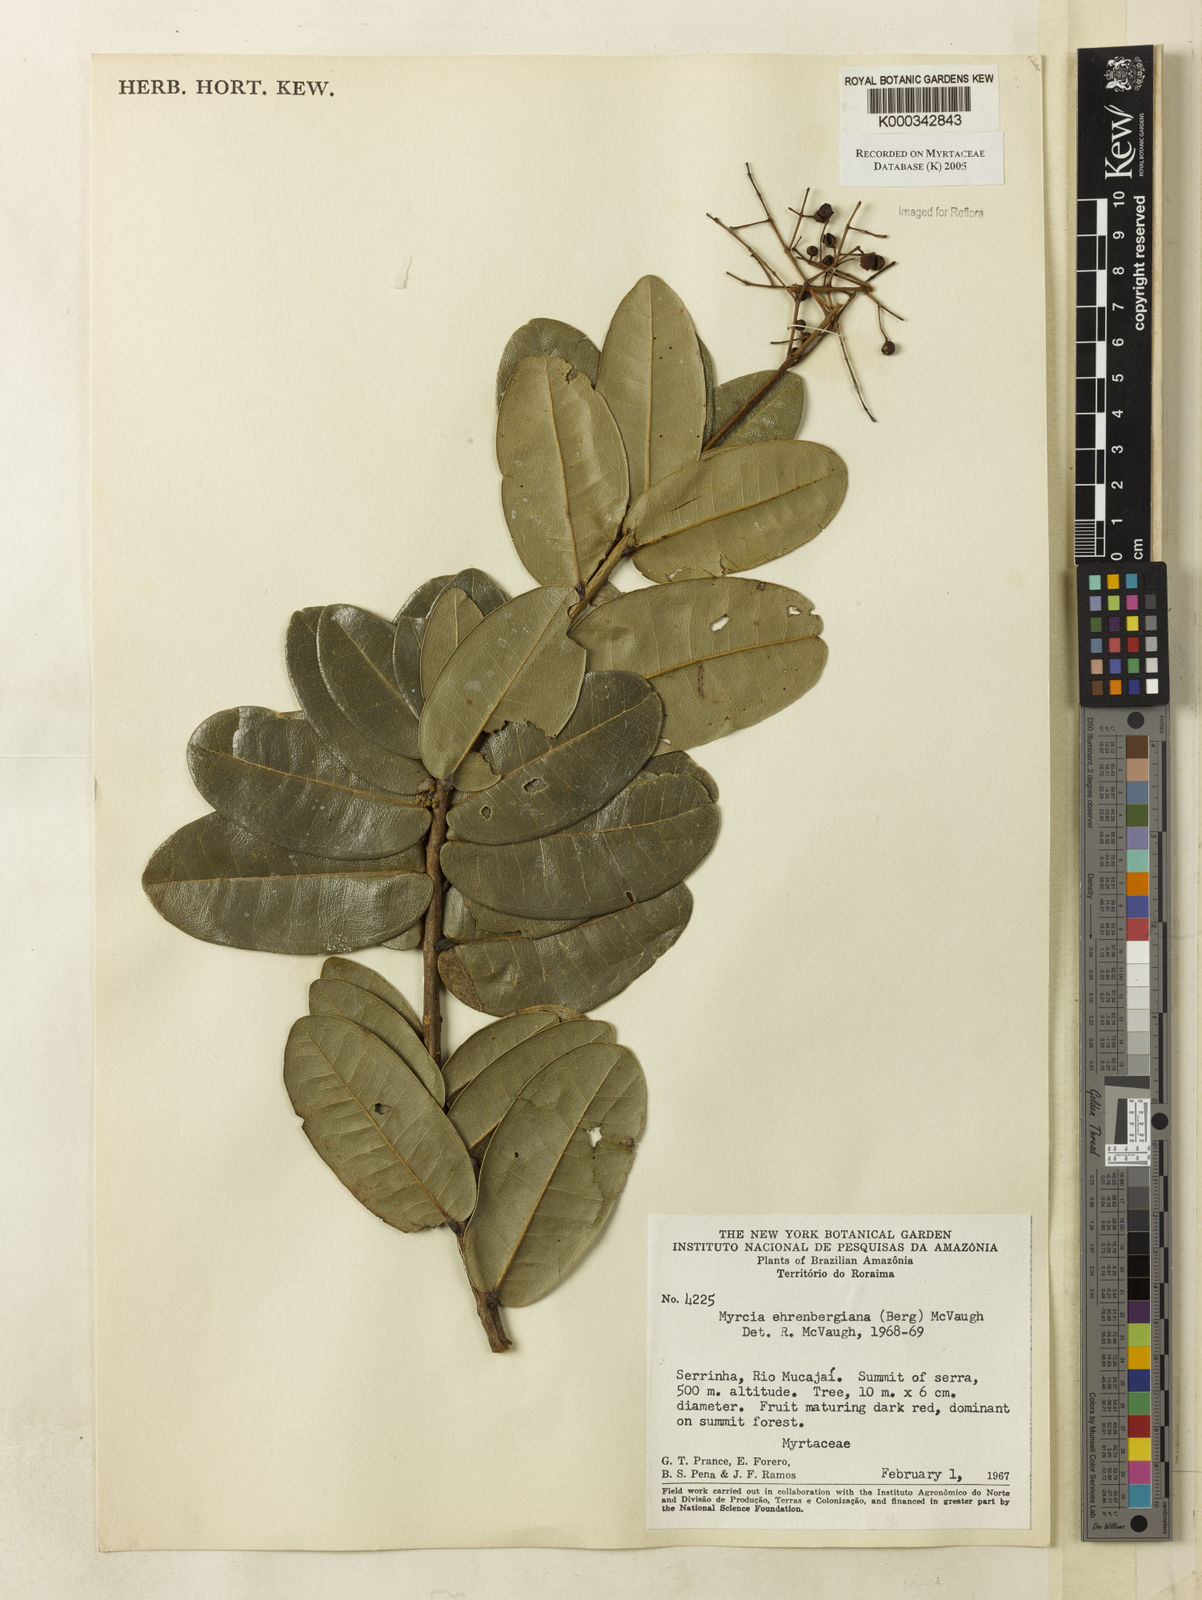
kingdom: Plantae
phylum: Tracheophyta
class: Magnoliopsida
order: Myrtales
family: Myrtaceae
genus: Myrcia
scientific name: Myrcia ehrenbergiana
